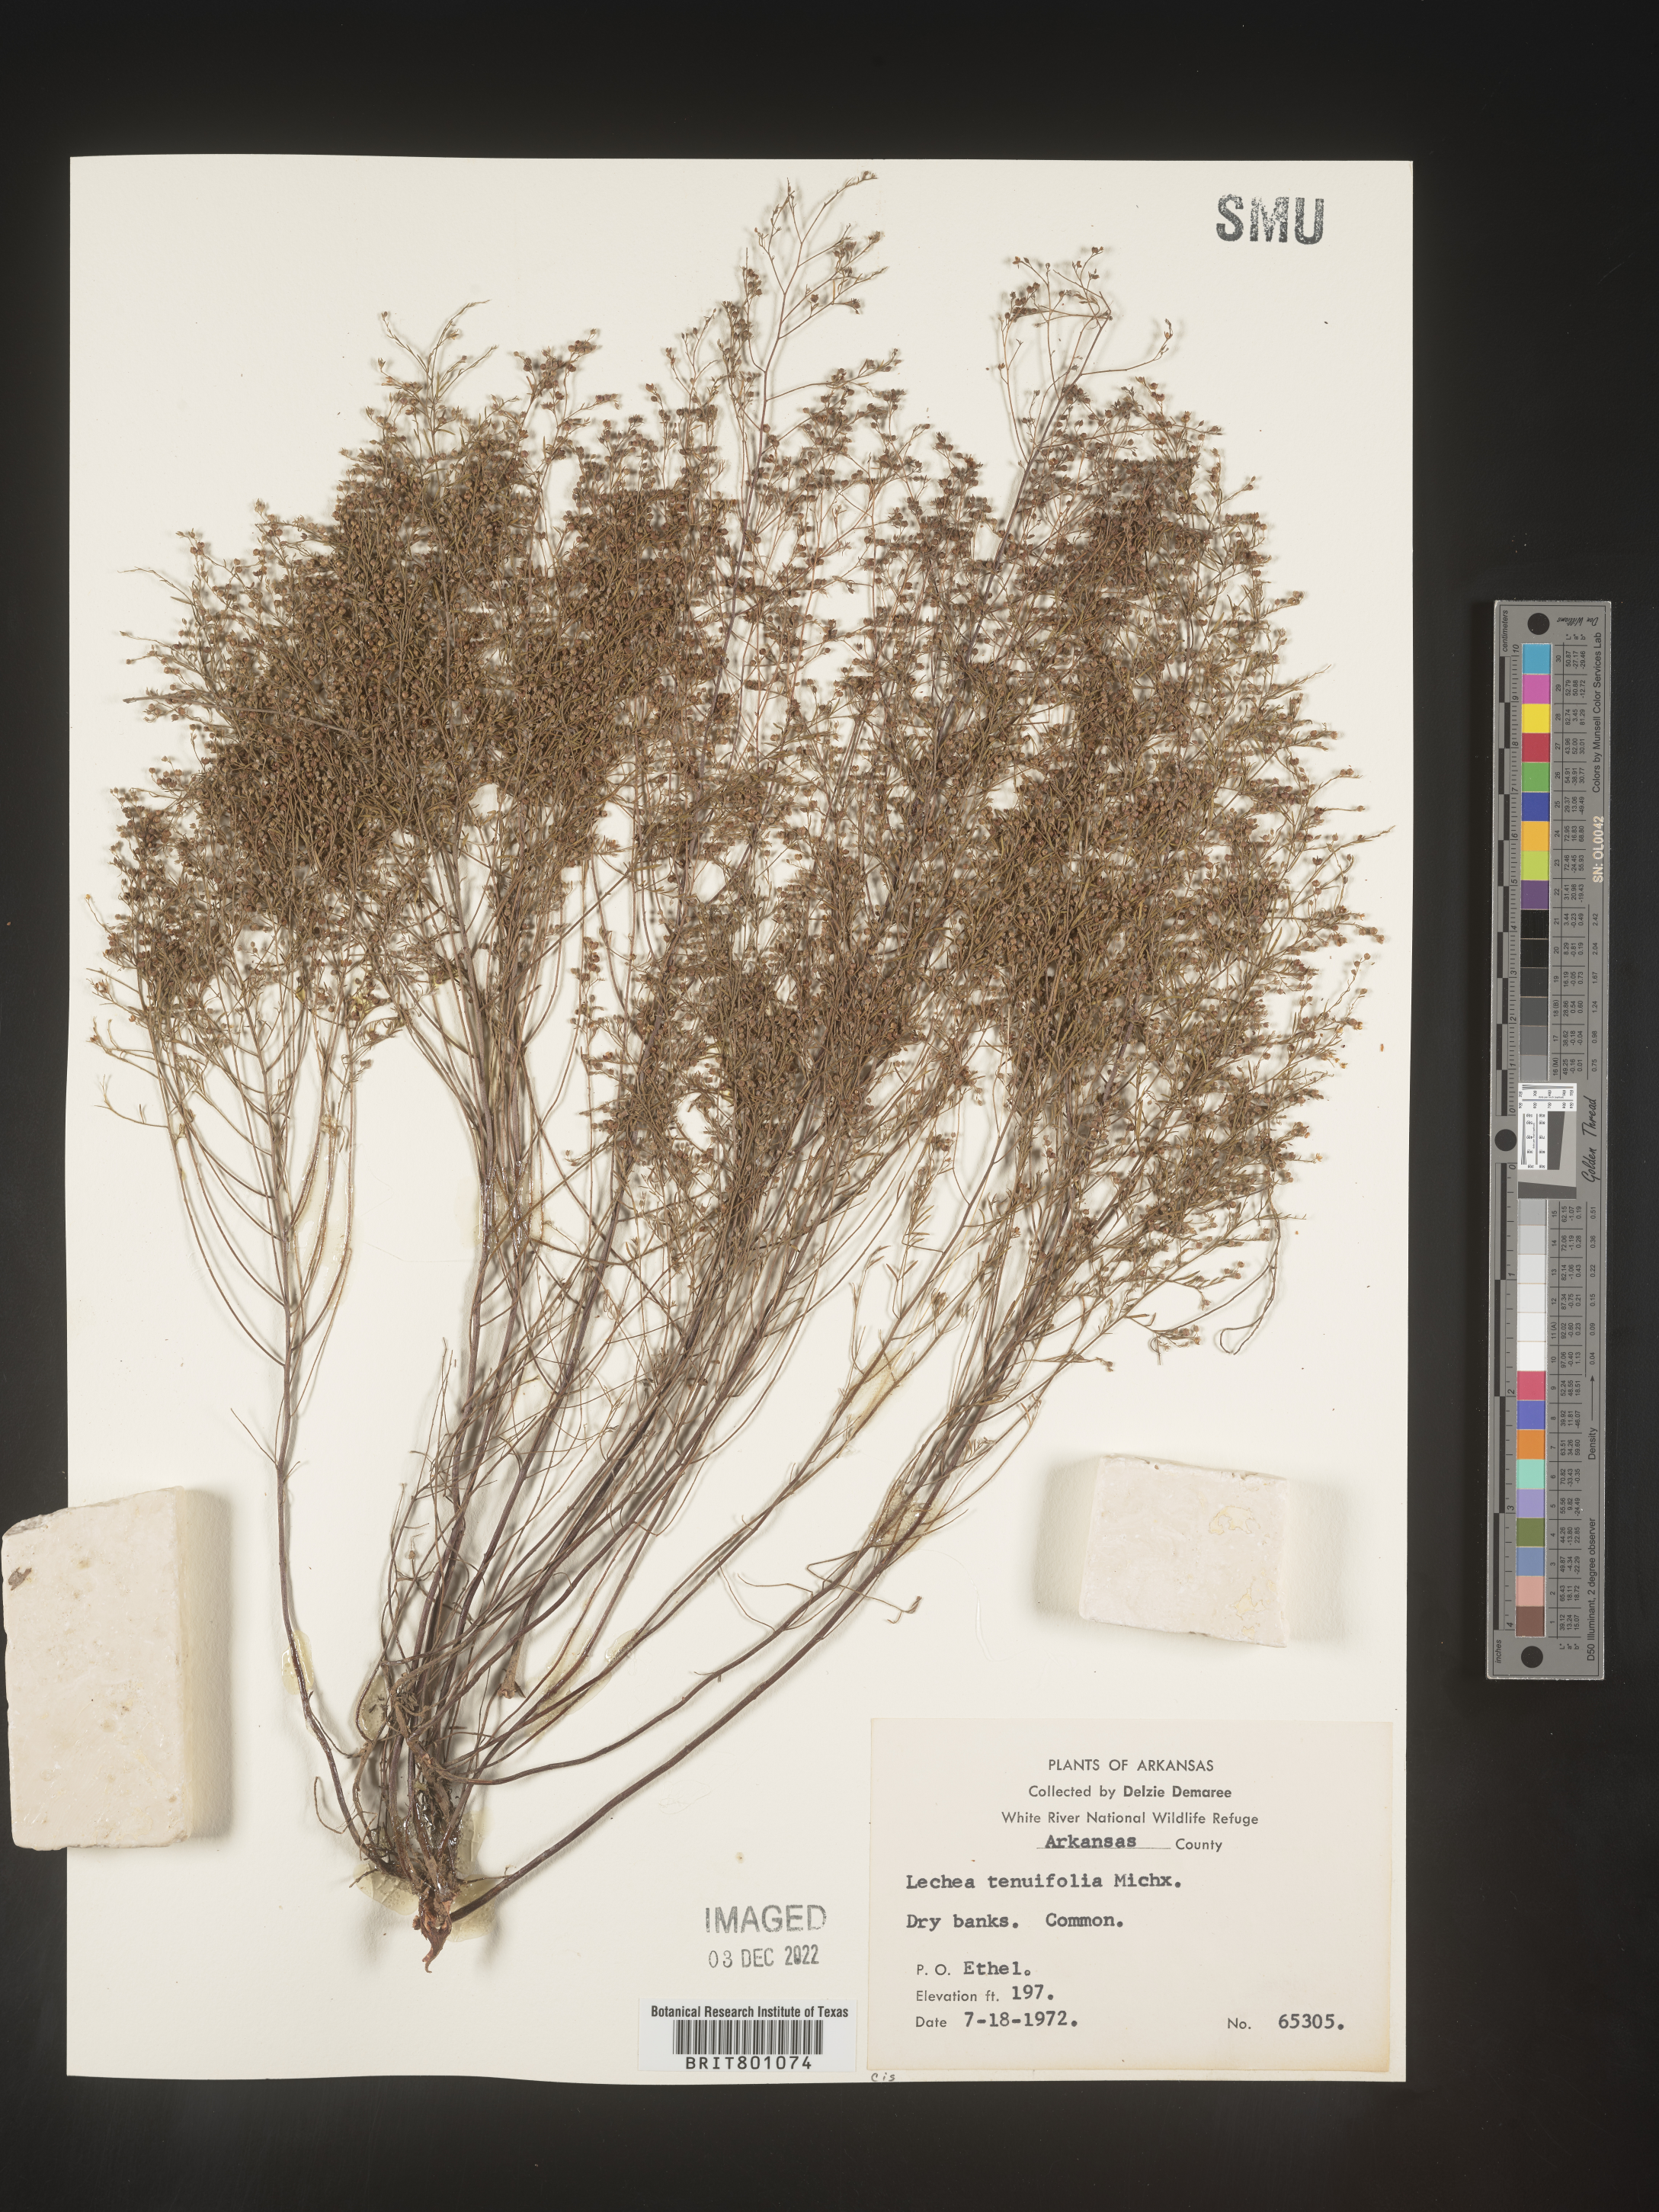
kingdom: Plantae
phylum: Tracheophyta
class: Magnoliopsida
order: Malvales
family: Cistaceae
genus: Lechea
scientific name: Lechea tenuifolia
